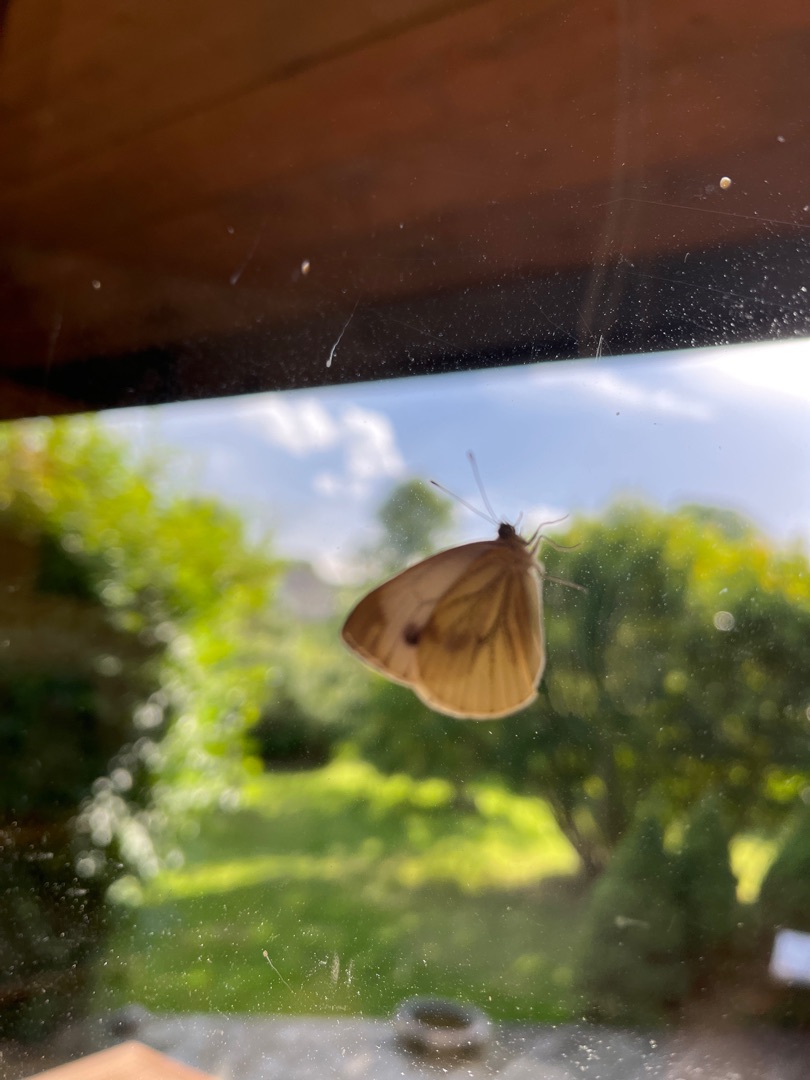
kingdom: Animalia
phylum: Arthropoda
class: Insecta
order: Lepidoptera
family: Pieridae
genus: Pieris
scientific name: Pieris napi
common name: Grønåret kålsommerfugl
